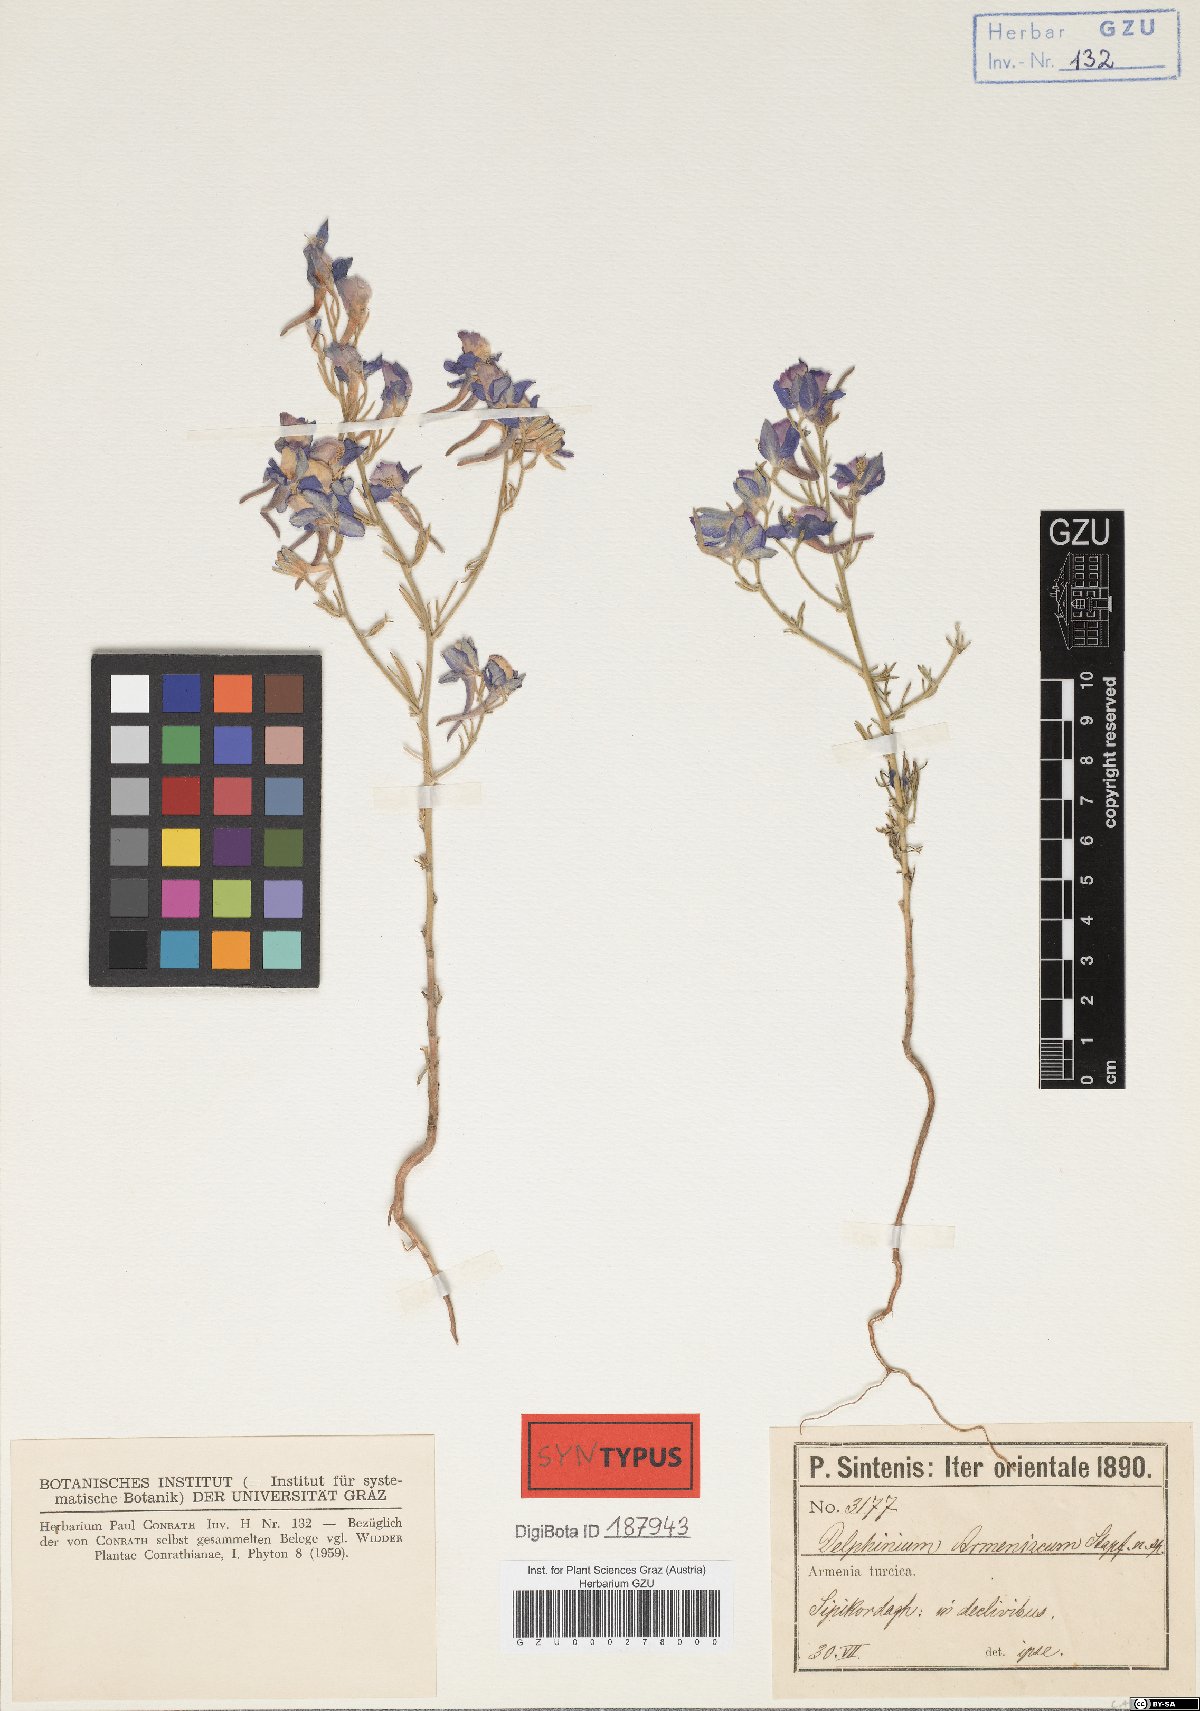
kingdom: Plantae
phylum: Tracheophyta
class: Magnoliopsida
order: Ranunculales
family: Ranunculaceae
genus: Delphinium
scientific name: Delphinium armeniacum
